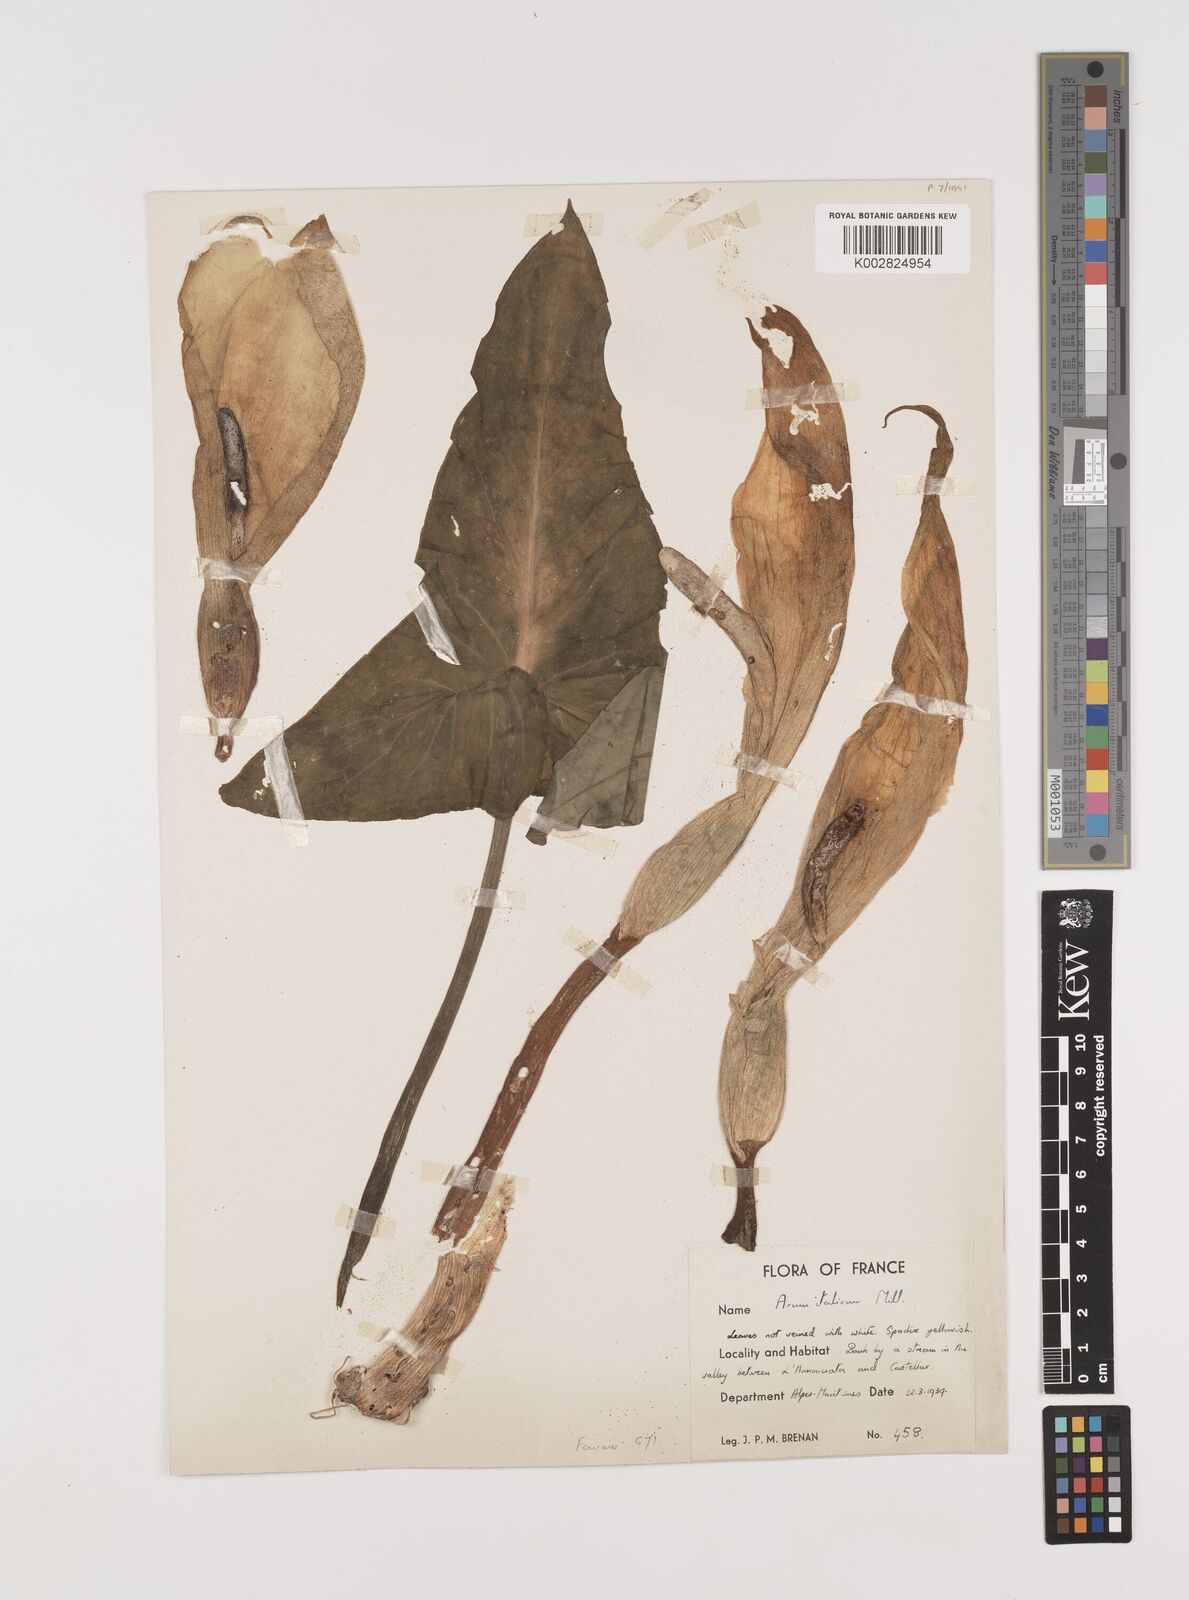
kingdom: Plantae
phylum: Tracheophyta
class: Liliopsida
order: Alismatales
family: Araceae
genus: Arum
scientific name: Arum italicum
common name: Italian lords-and-ladies
